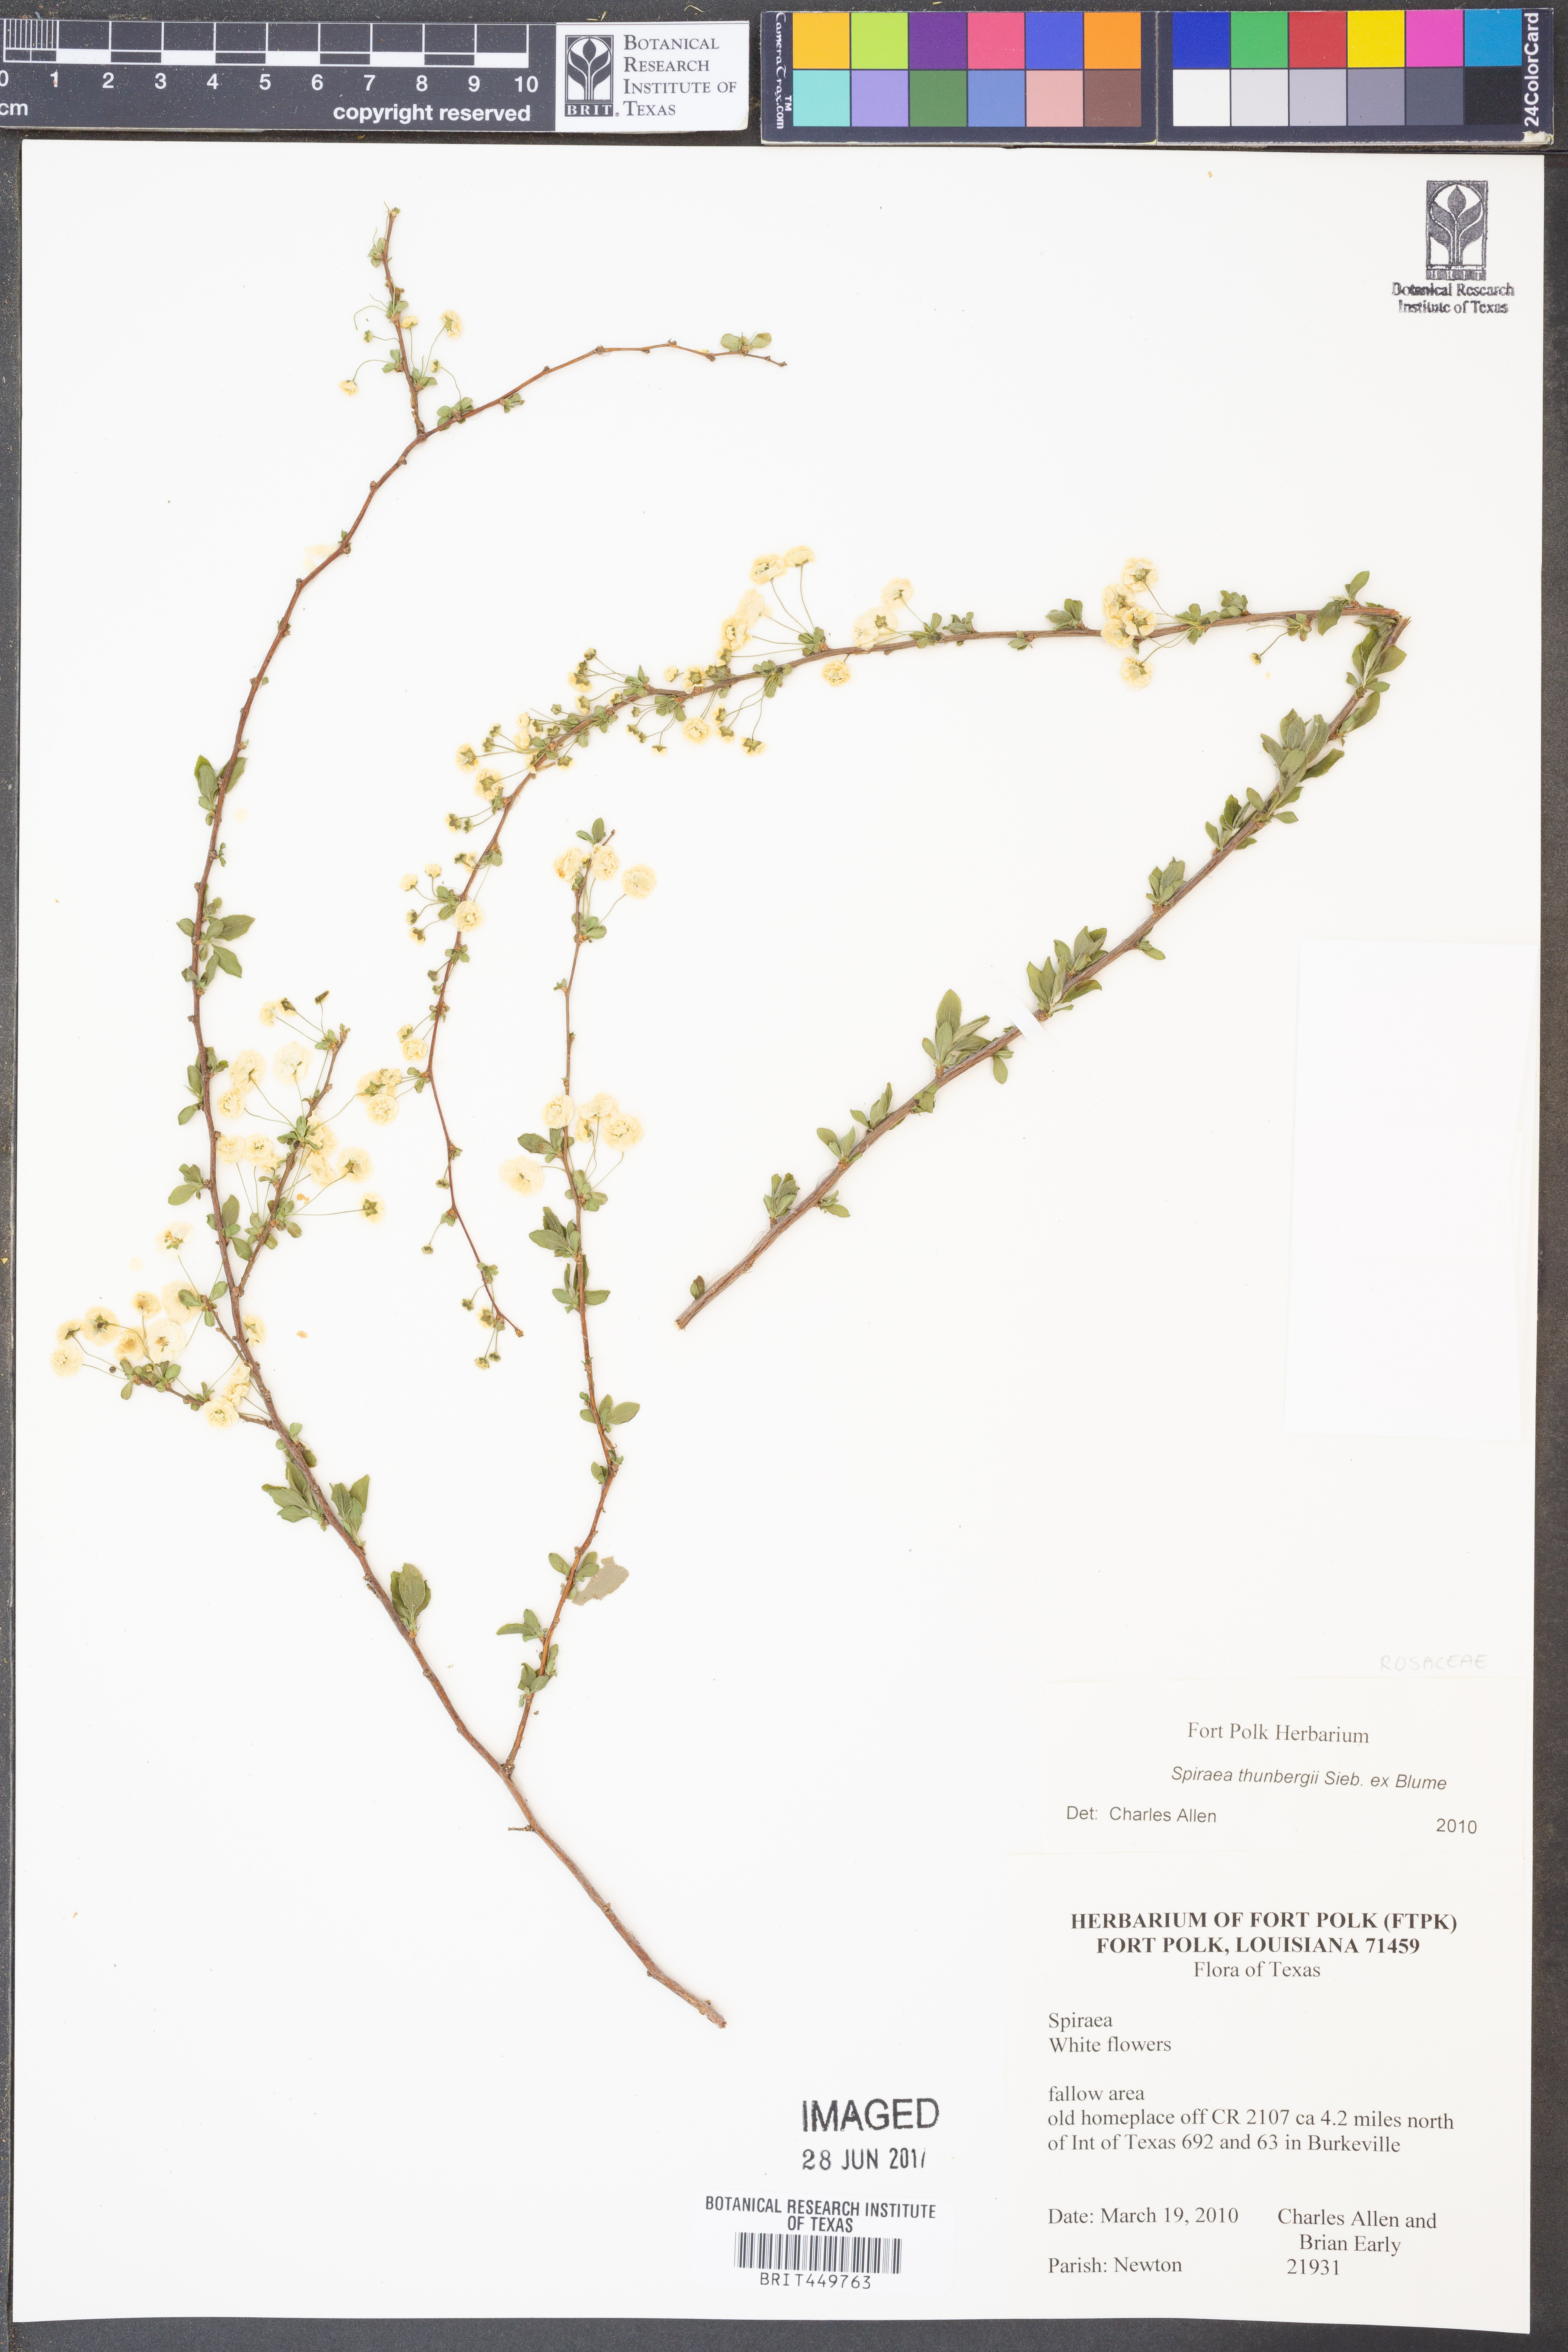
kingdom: Plantae
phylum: Tracheophyta
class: Magnoliopsida
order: Rosales
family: Rosaceae
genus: Spiraea
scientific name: Spiraea thunbergii
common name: Thunberg's meadowsweet
